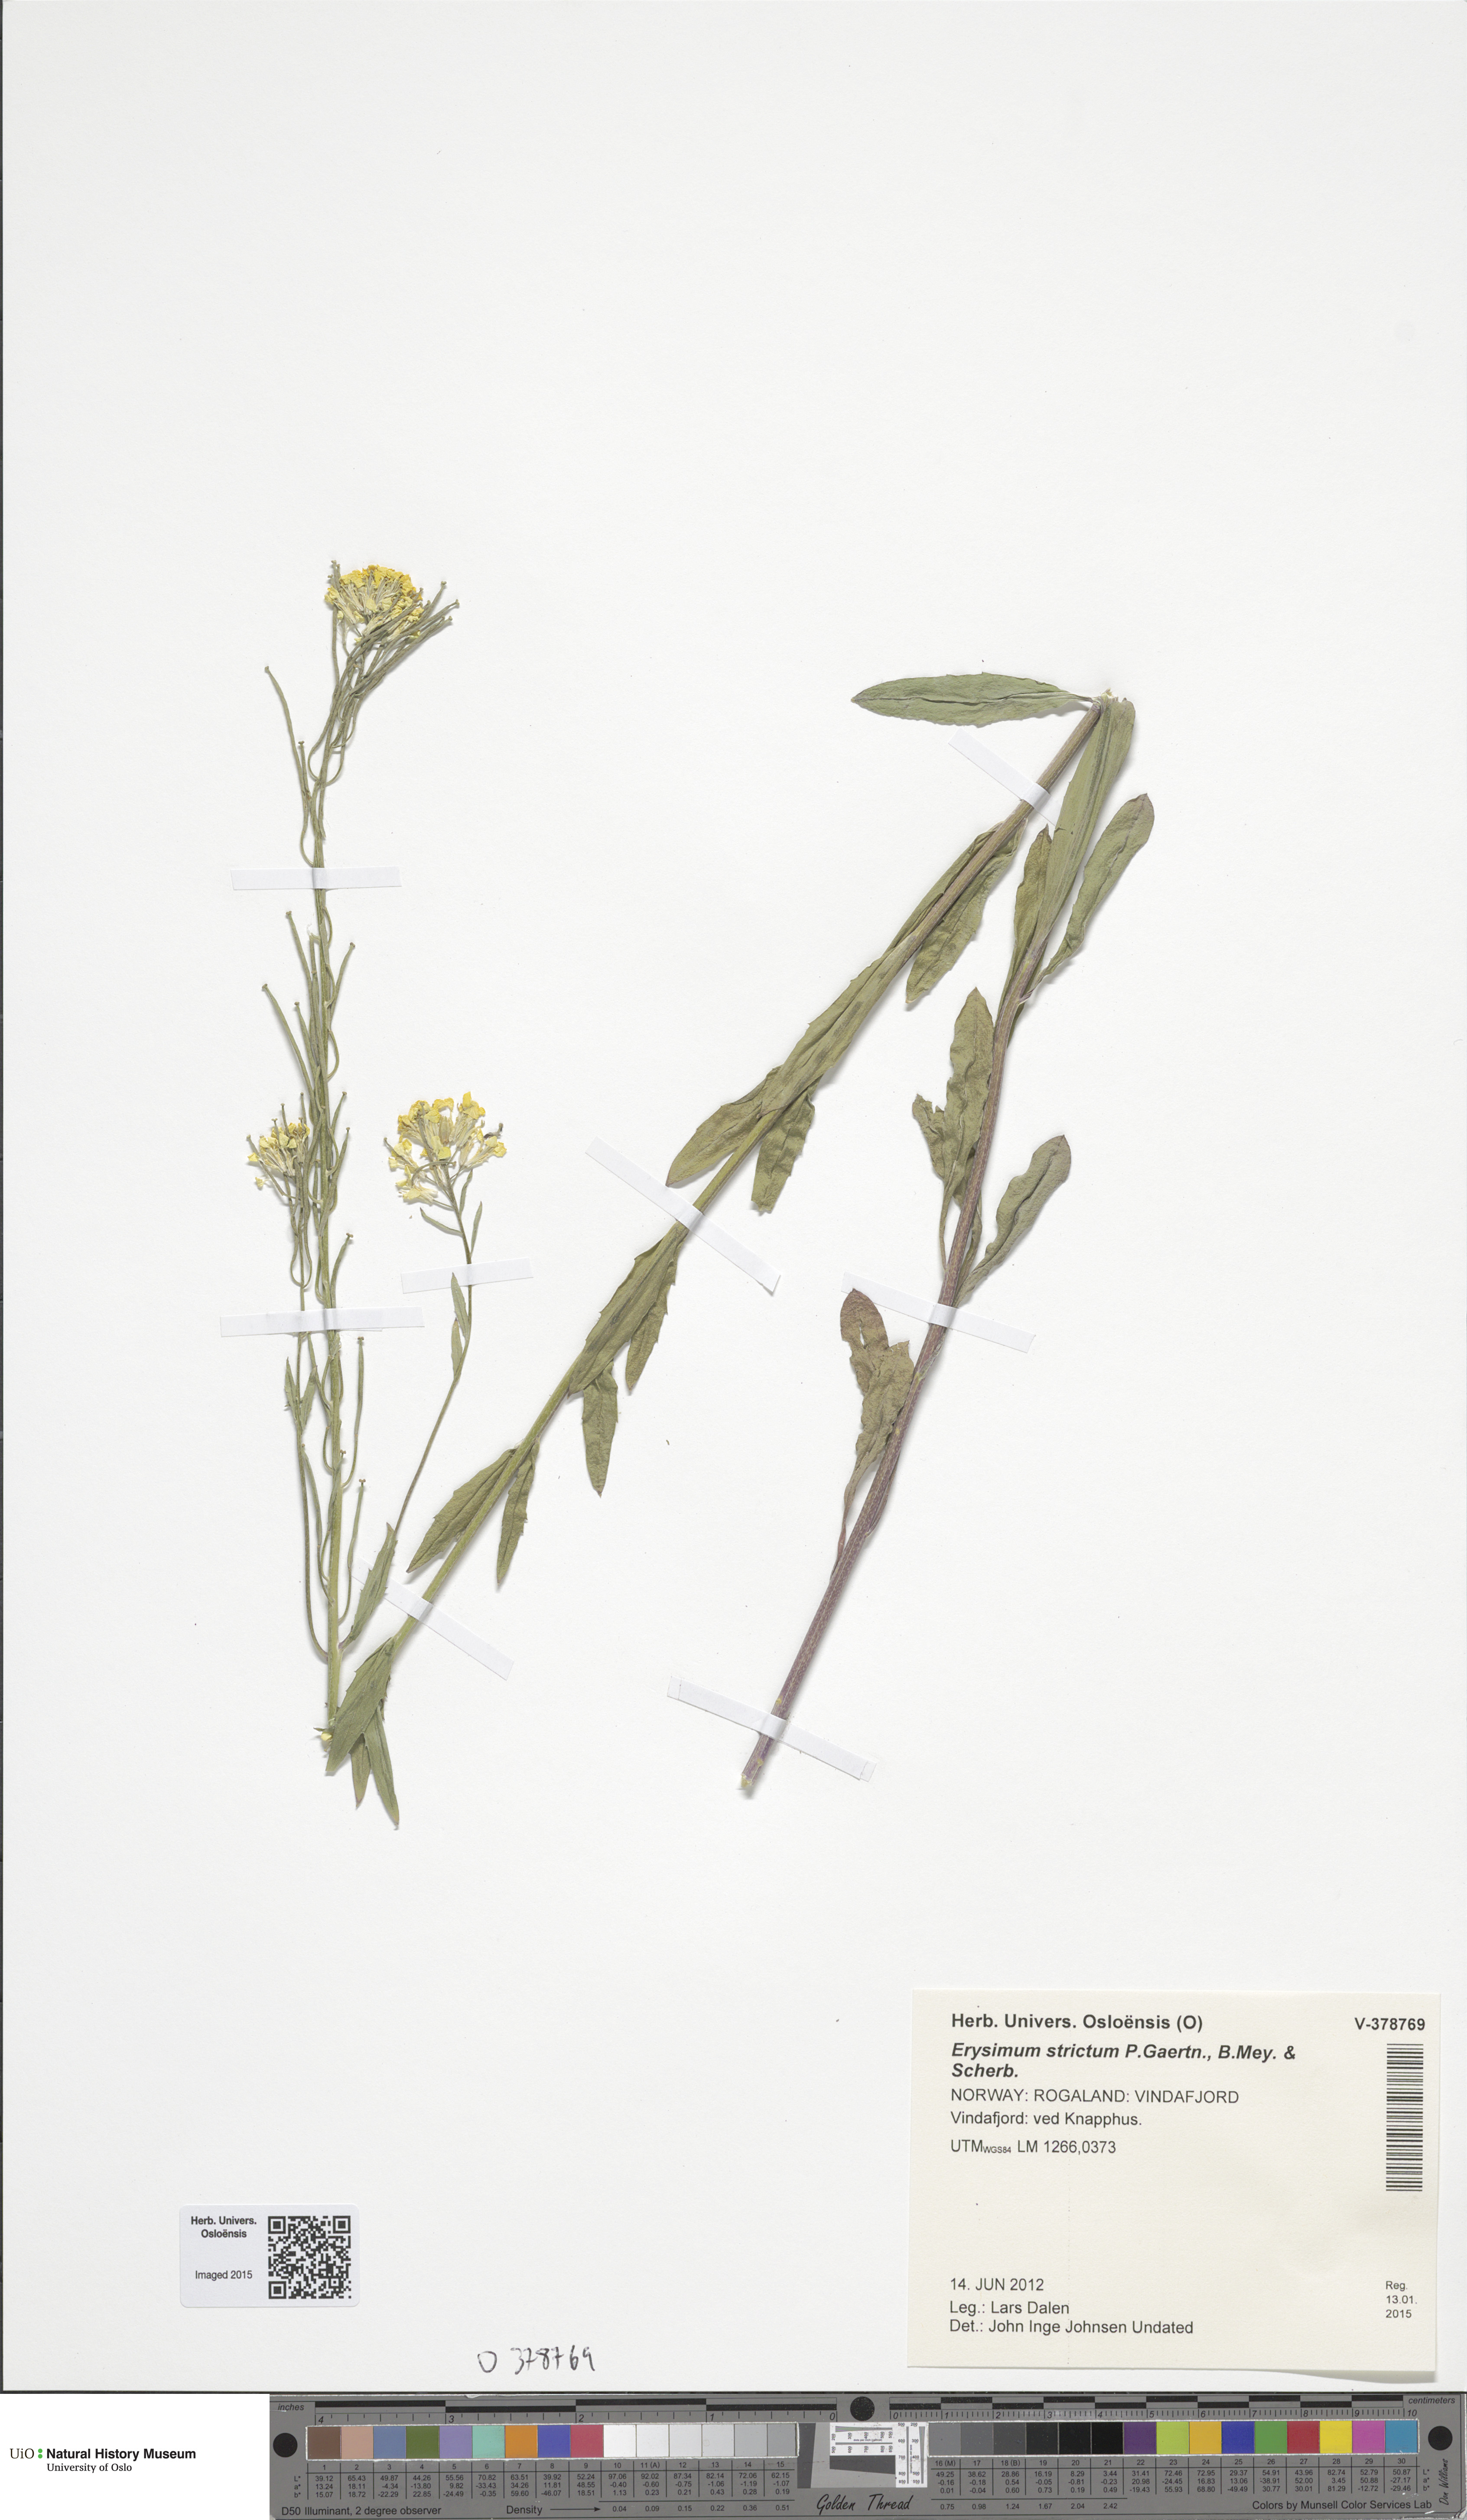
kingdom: Plantae
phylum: Tracheophyta
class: Magnoliopsida
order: Brassicales
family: Brassicaceae
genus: Erysimum
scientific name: Erysimum virgatum
